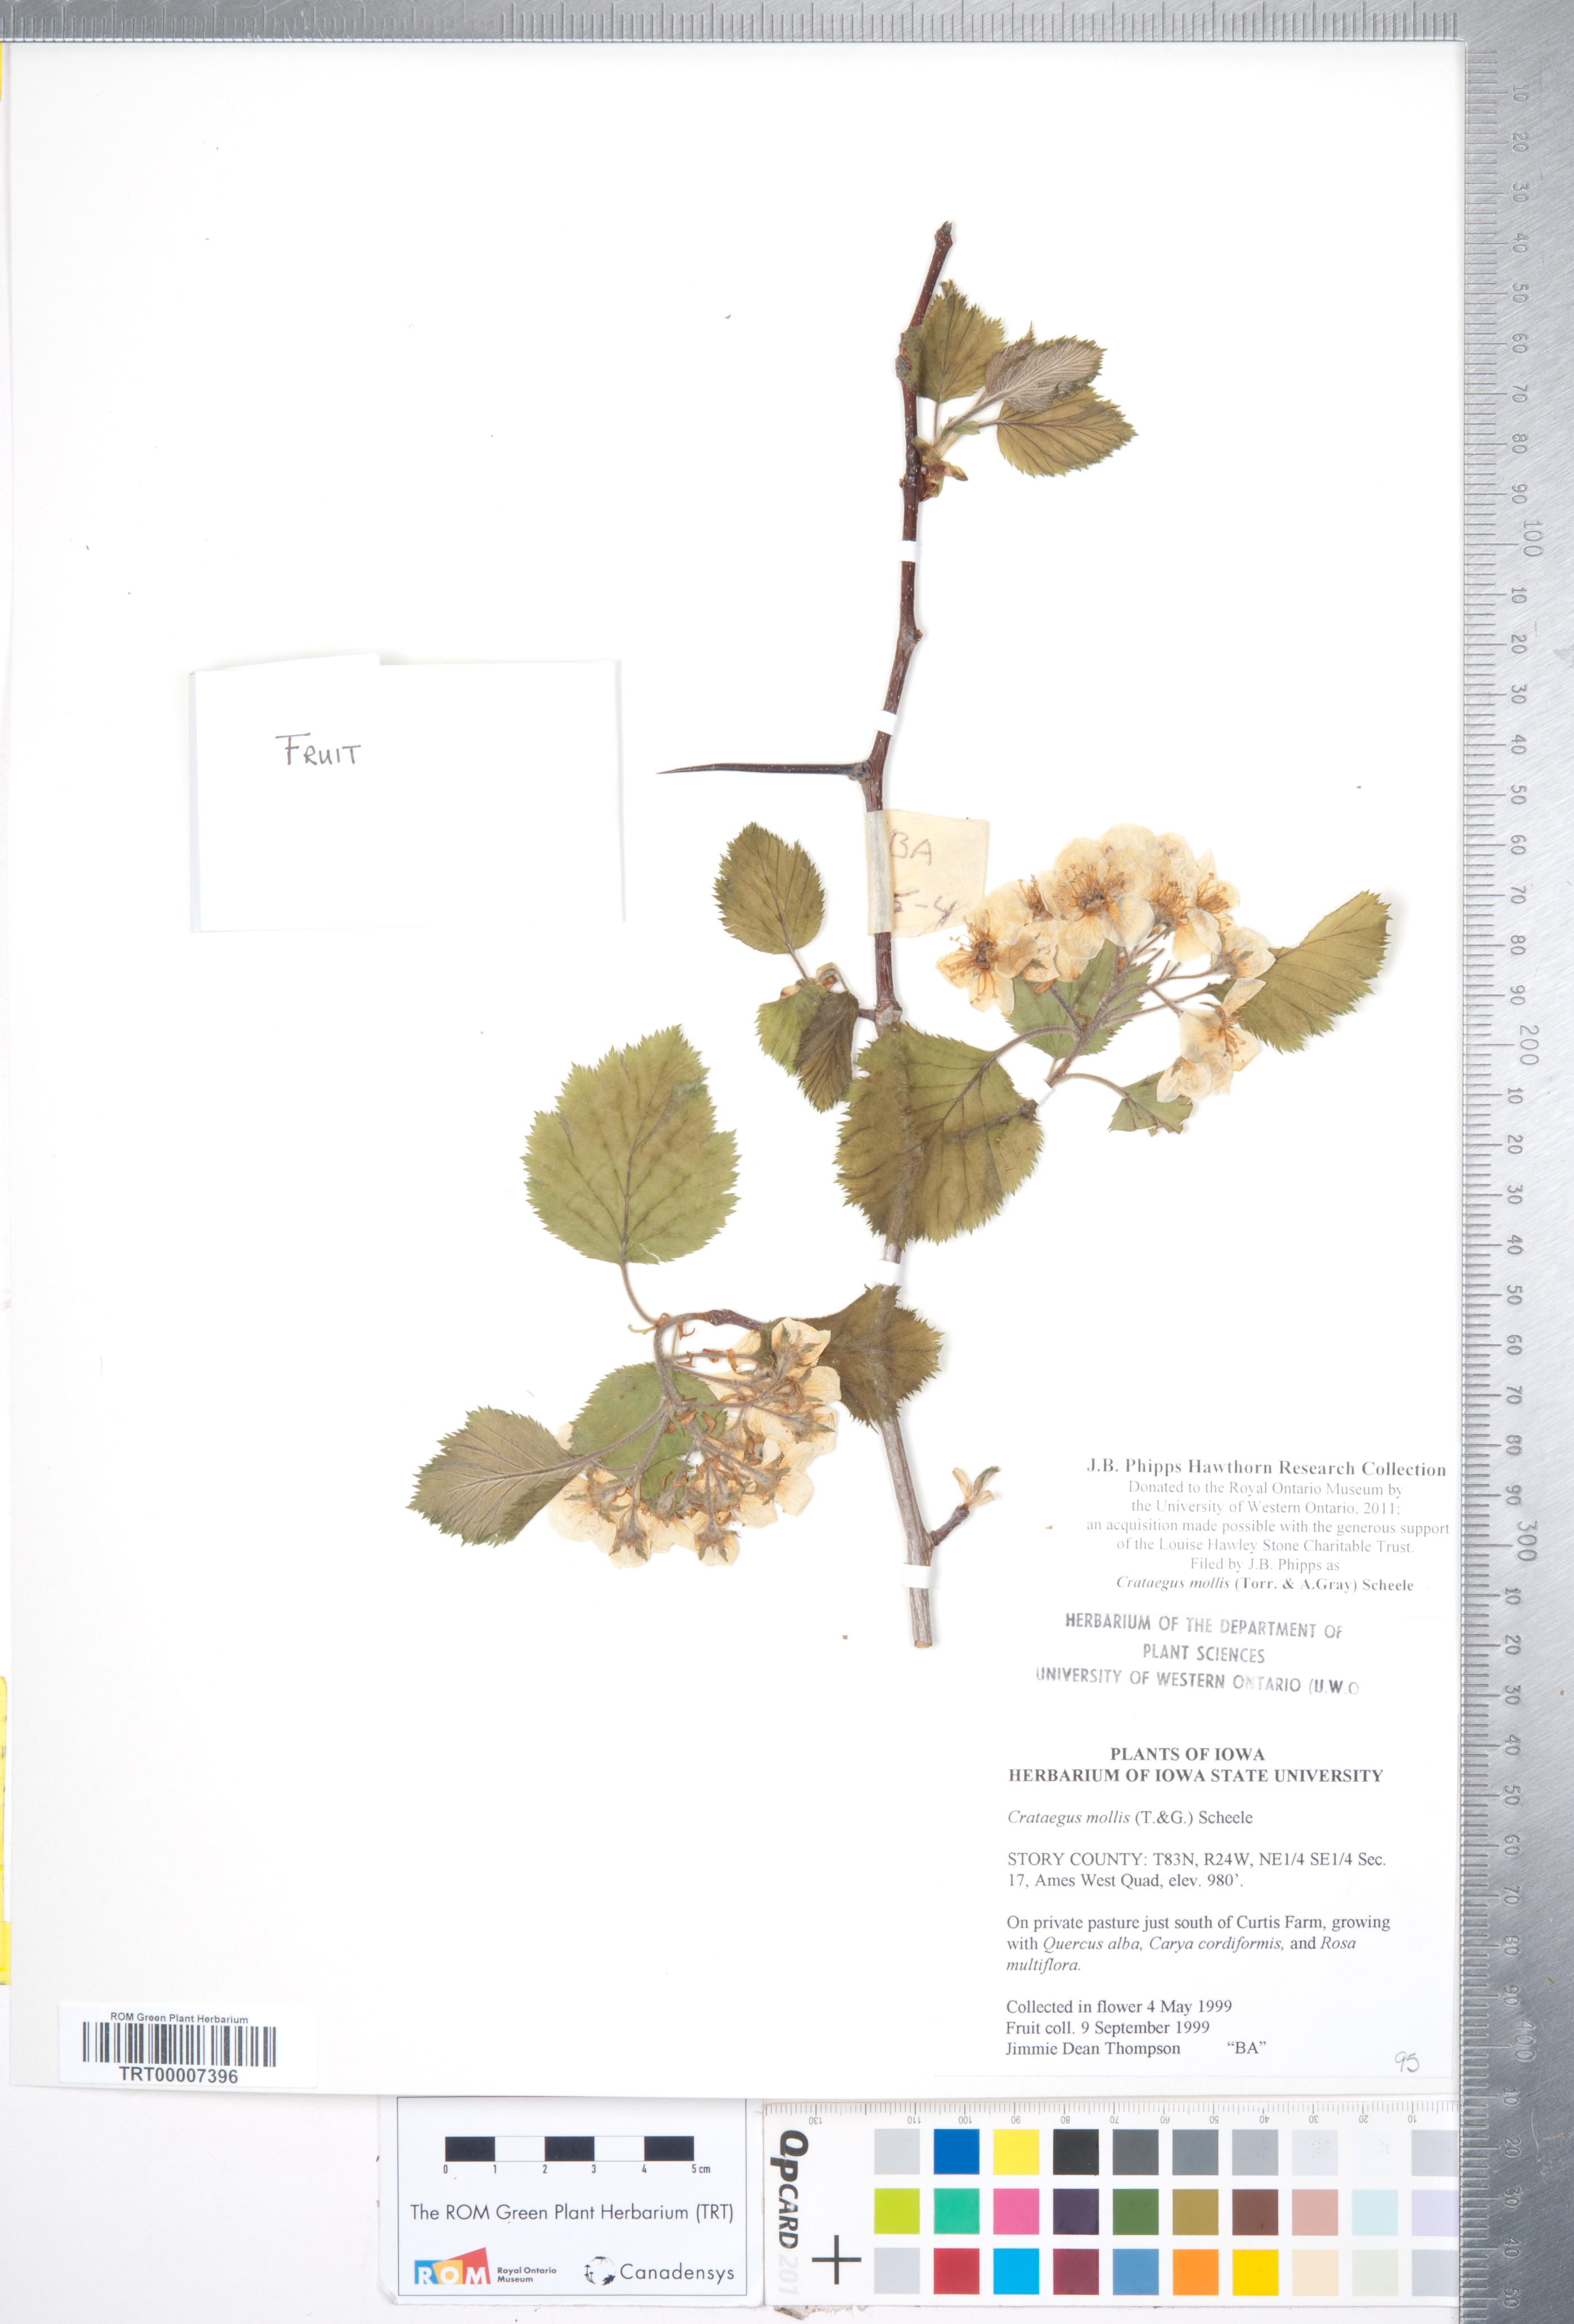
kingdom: Plantae
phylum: Tracheophyta
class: Magnoliopsida
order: Rosales
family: Rosaceae
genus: Crataegus
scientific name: Crataegus mollis
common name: Downy hawthorn
